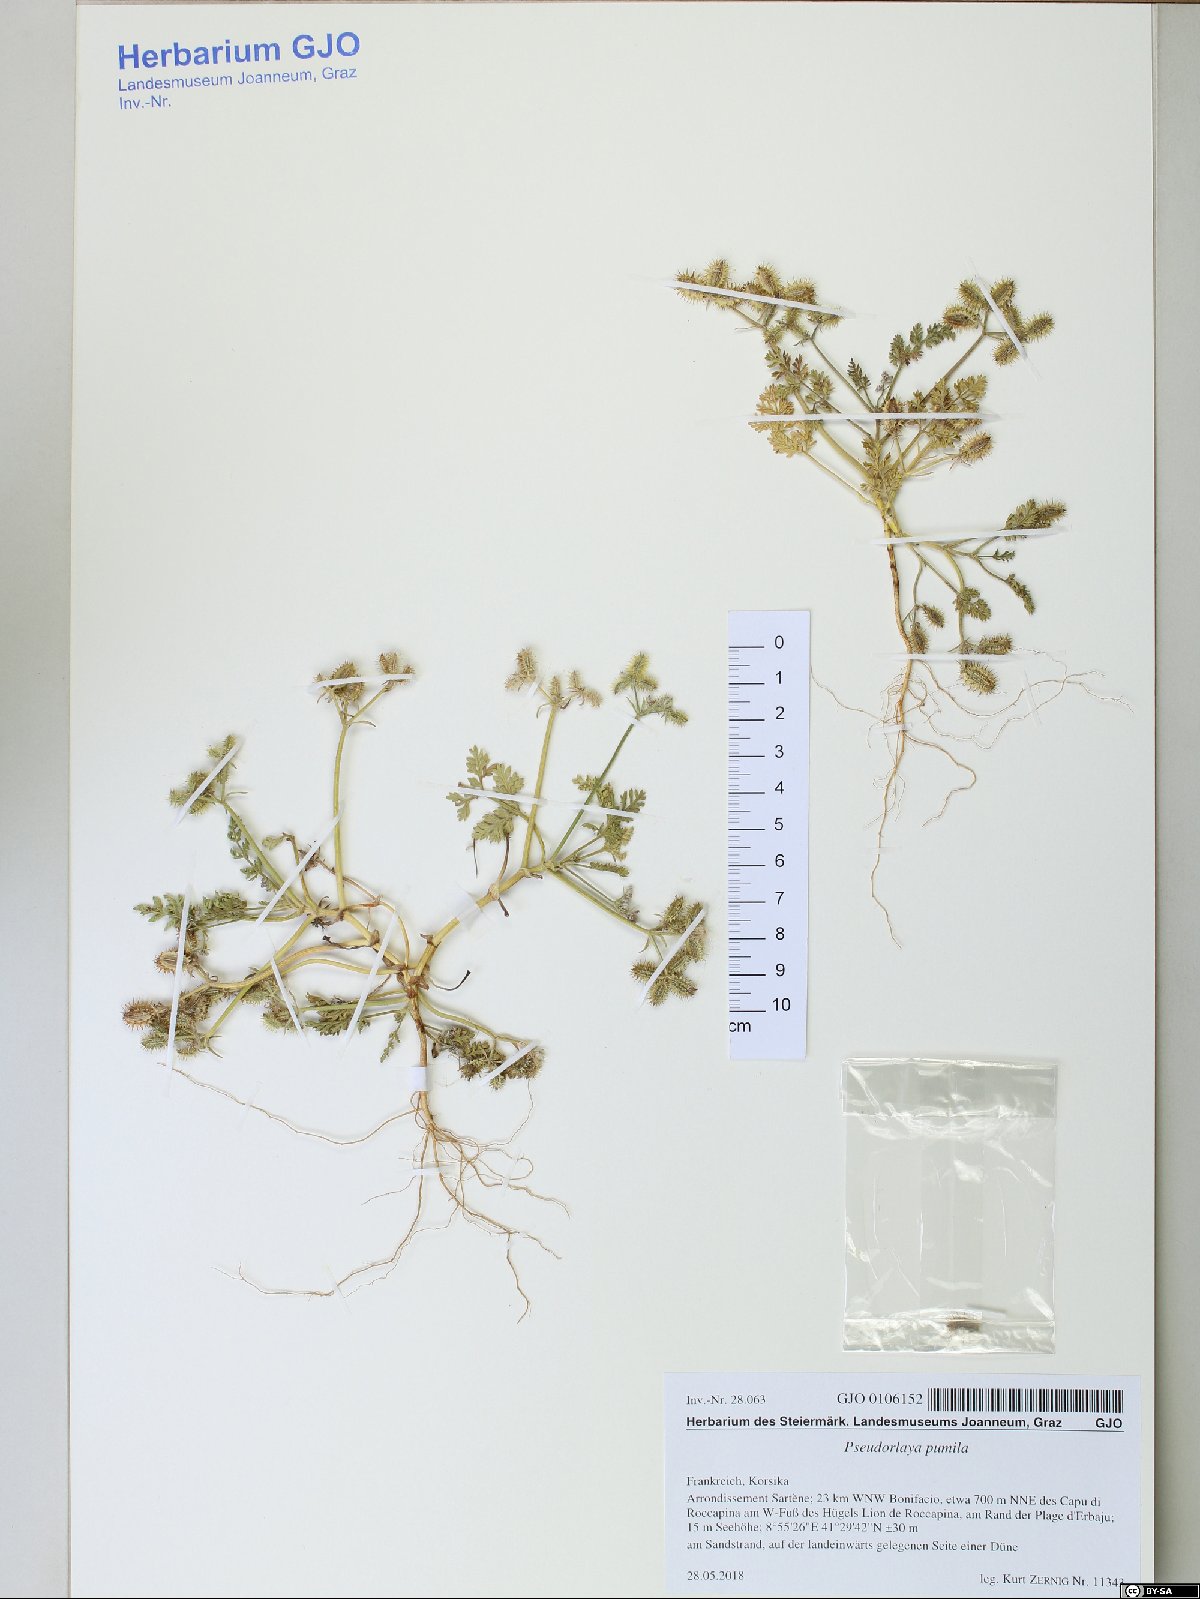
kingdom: Plantae
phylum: Tracheophyta
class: Magnoliopsida
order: Apiales
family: Apiaceae
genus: Daucus
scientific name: Daucus pumilus
